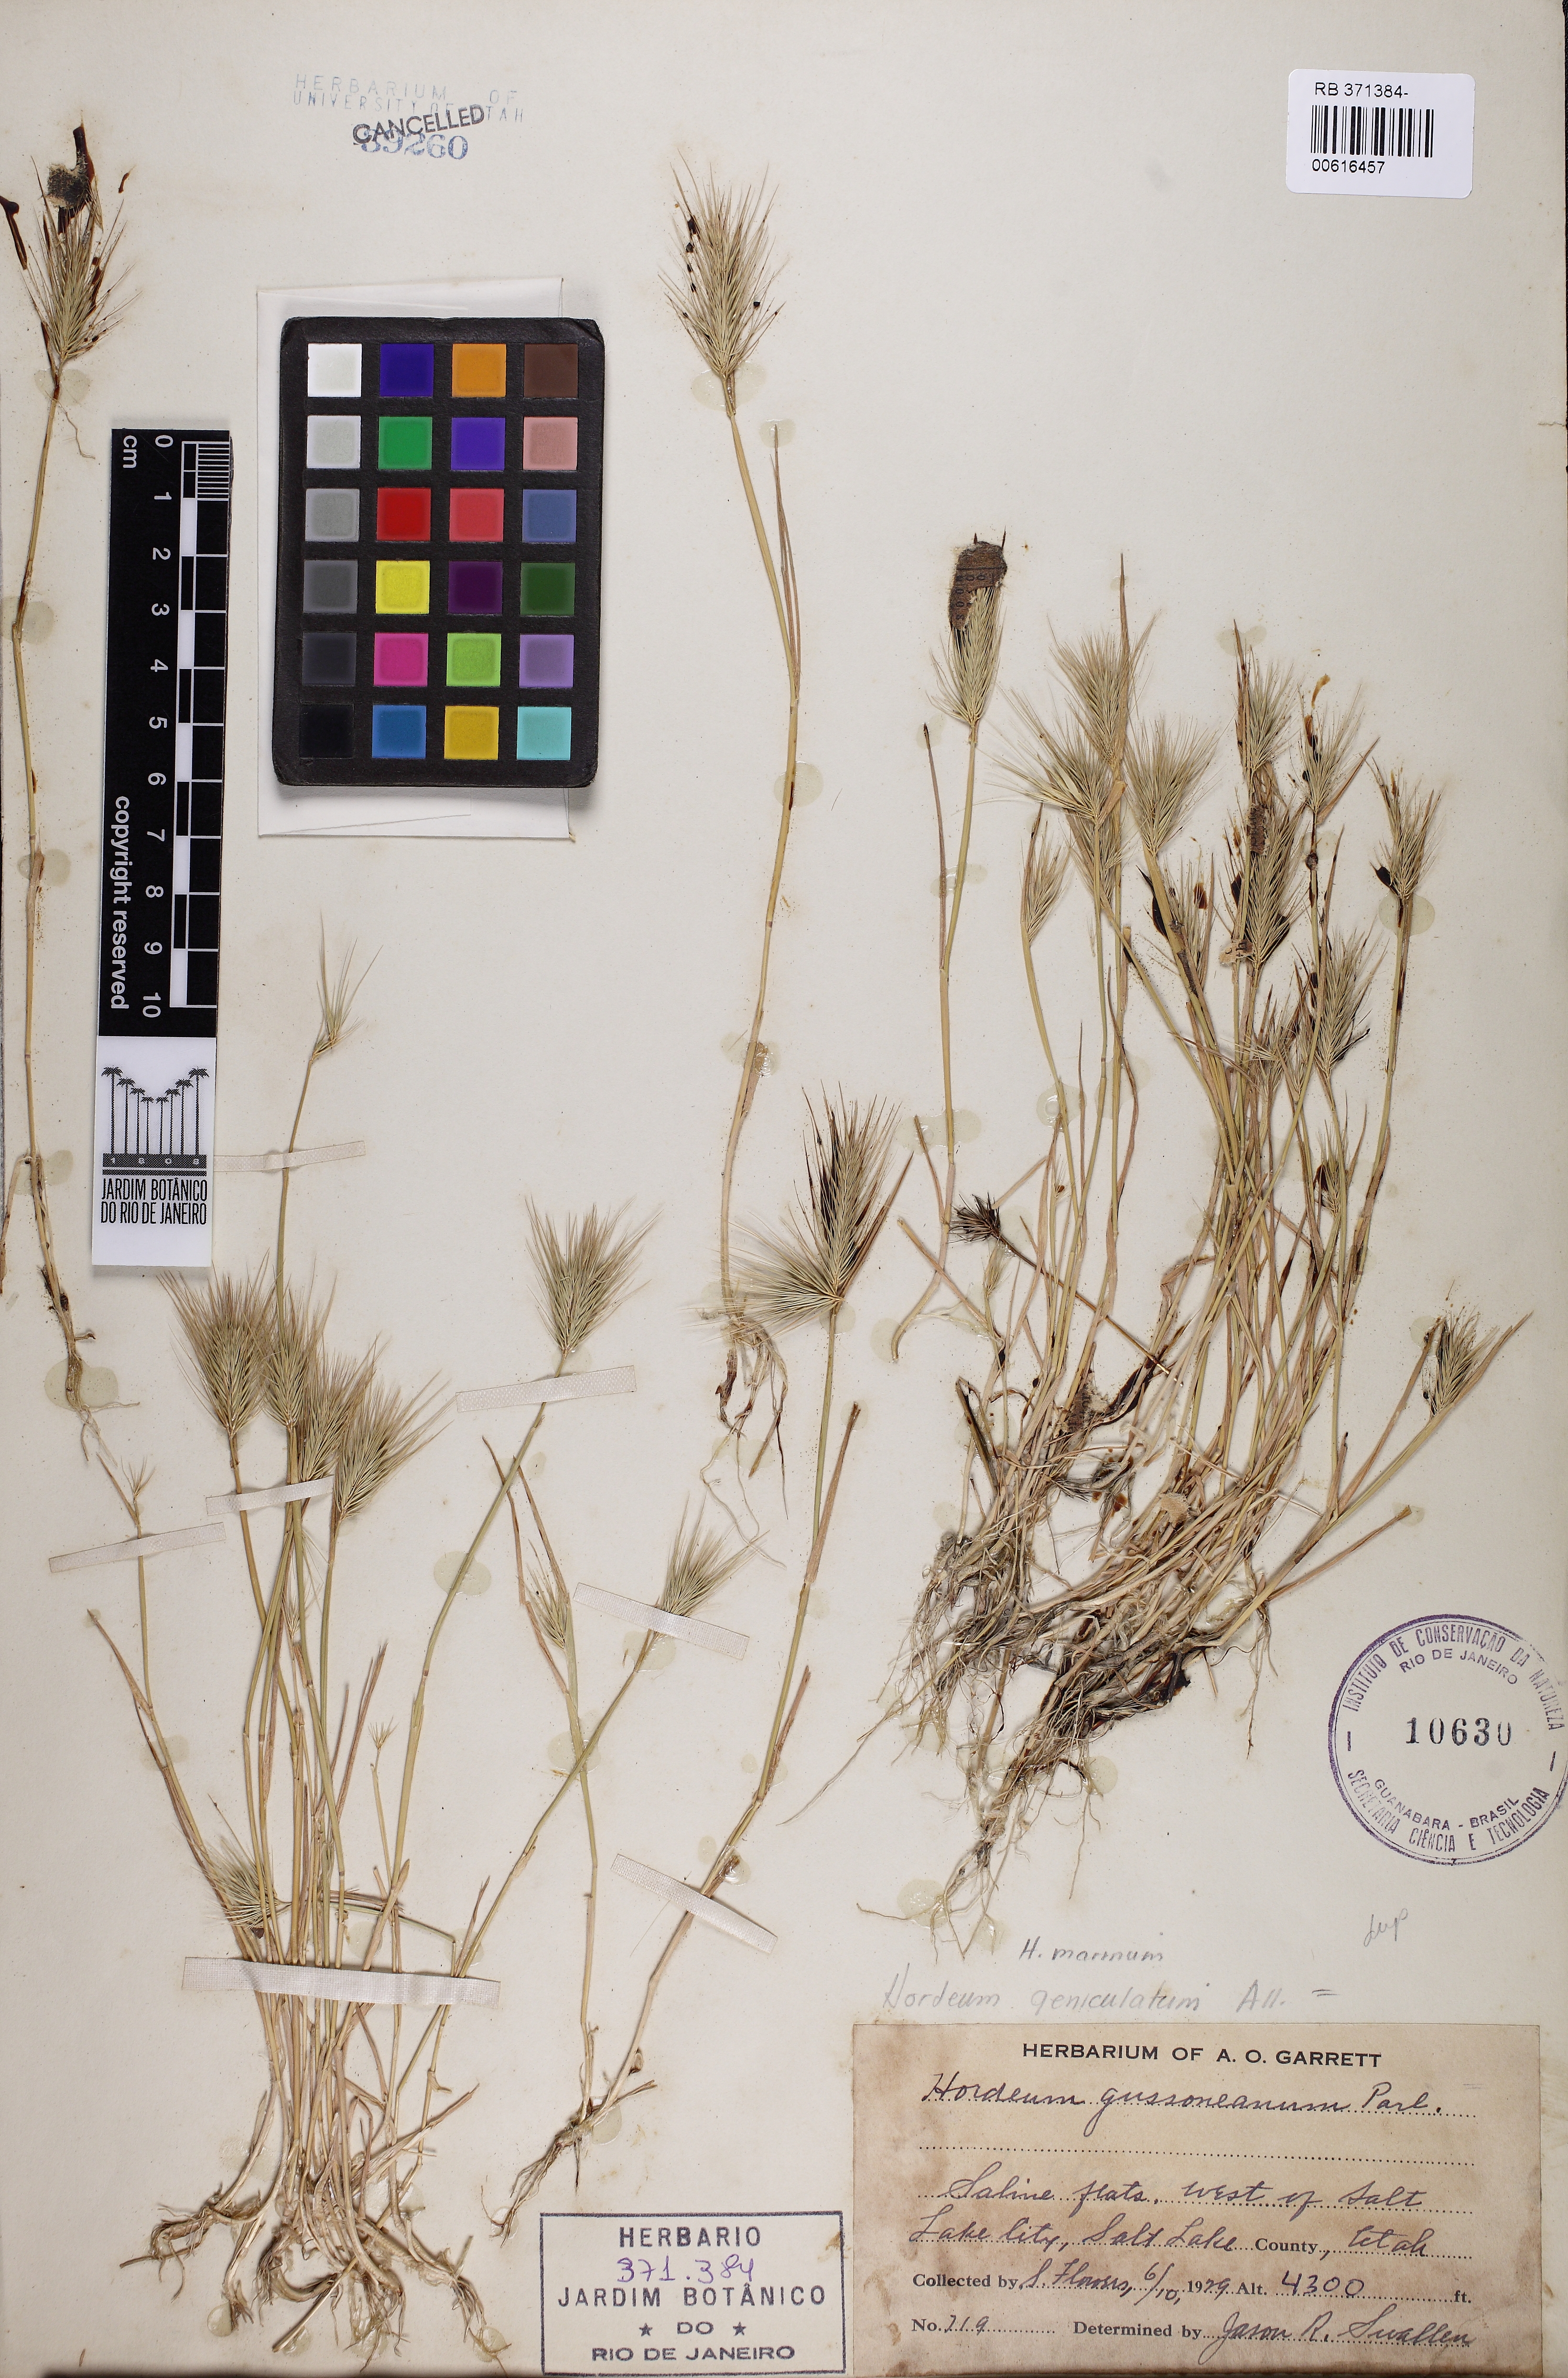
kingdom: Plantae
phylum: Tracheophyta
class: Liliopsida
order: Poales
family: Poaceae
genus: Hordeum
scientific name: Hordeum marinum
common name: Sea barley
